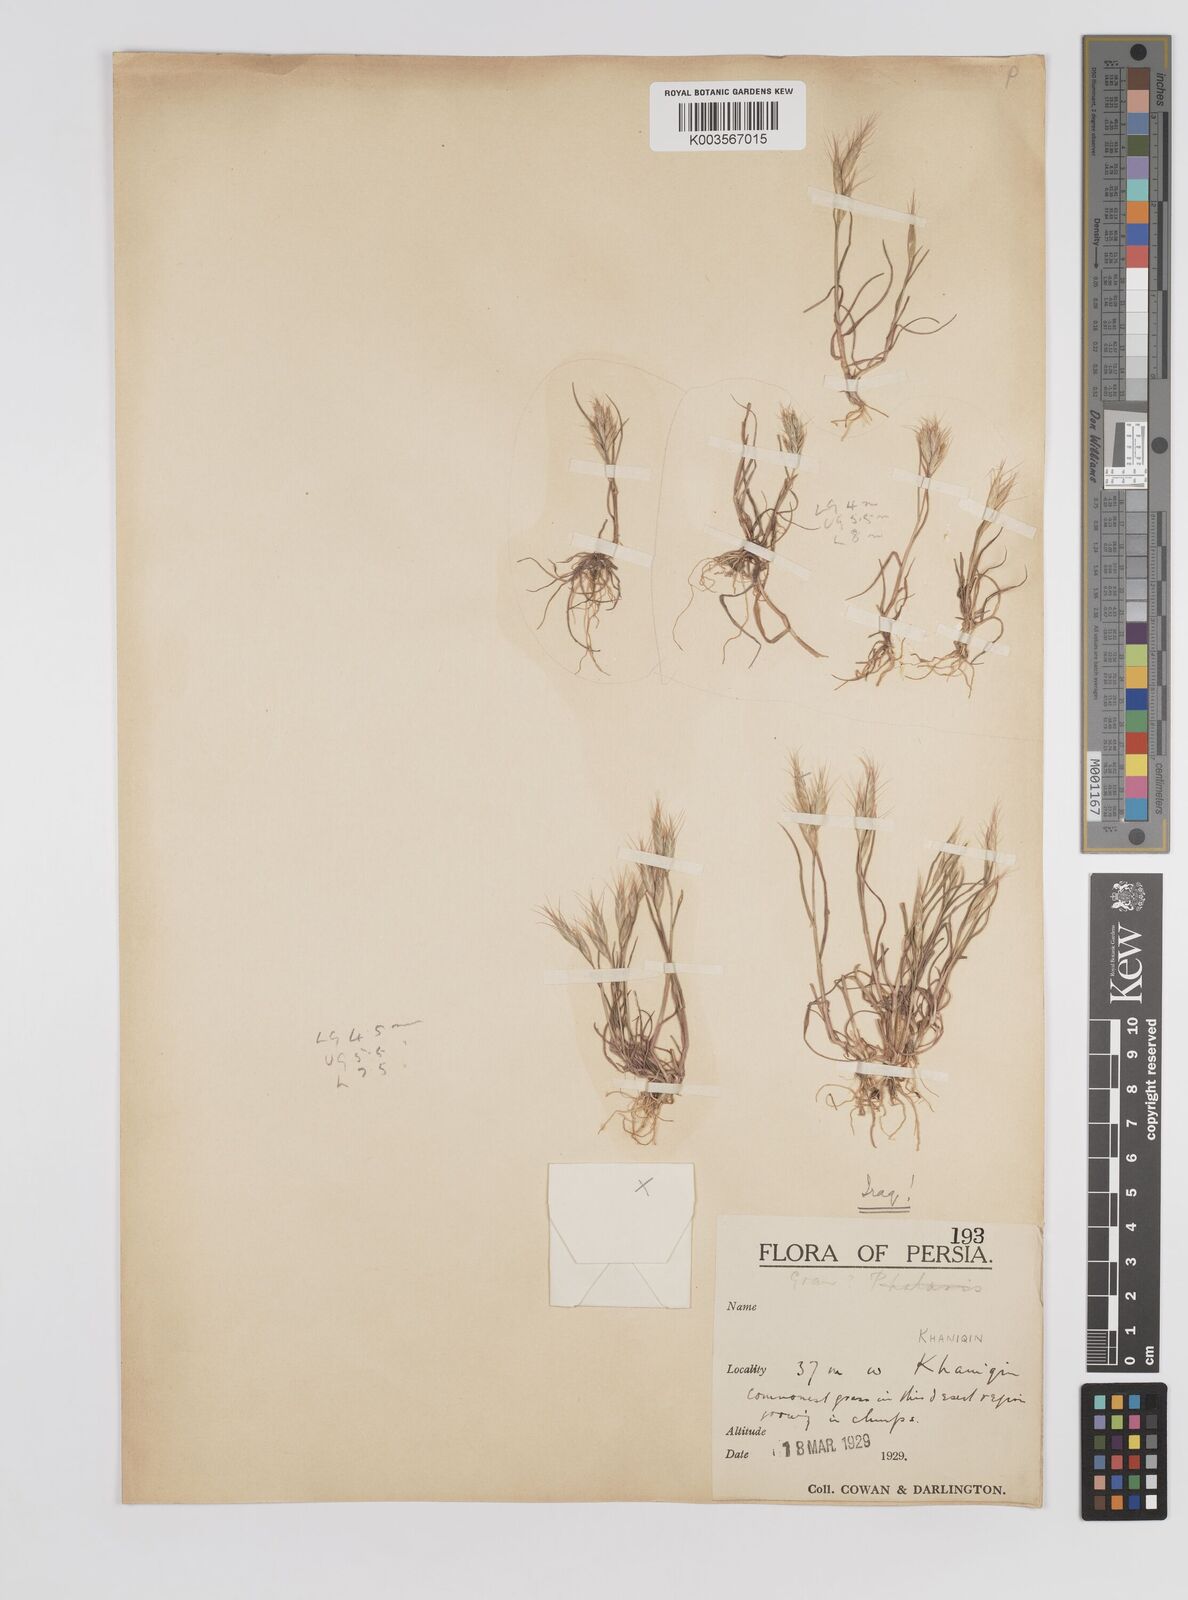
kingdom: Plantae
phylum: Tracheophyta
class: Liliopsida
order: Poales
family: Poaceae
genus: Bromus
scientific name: Bromus danthoniae
